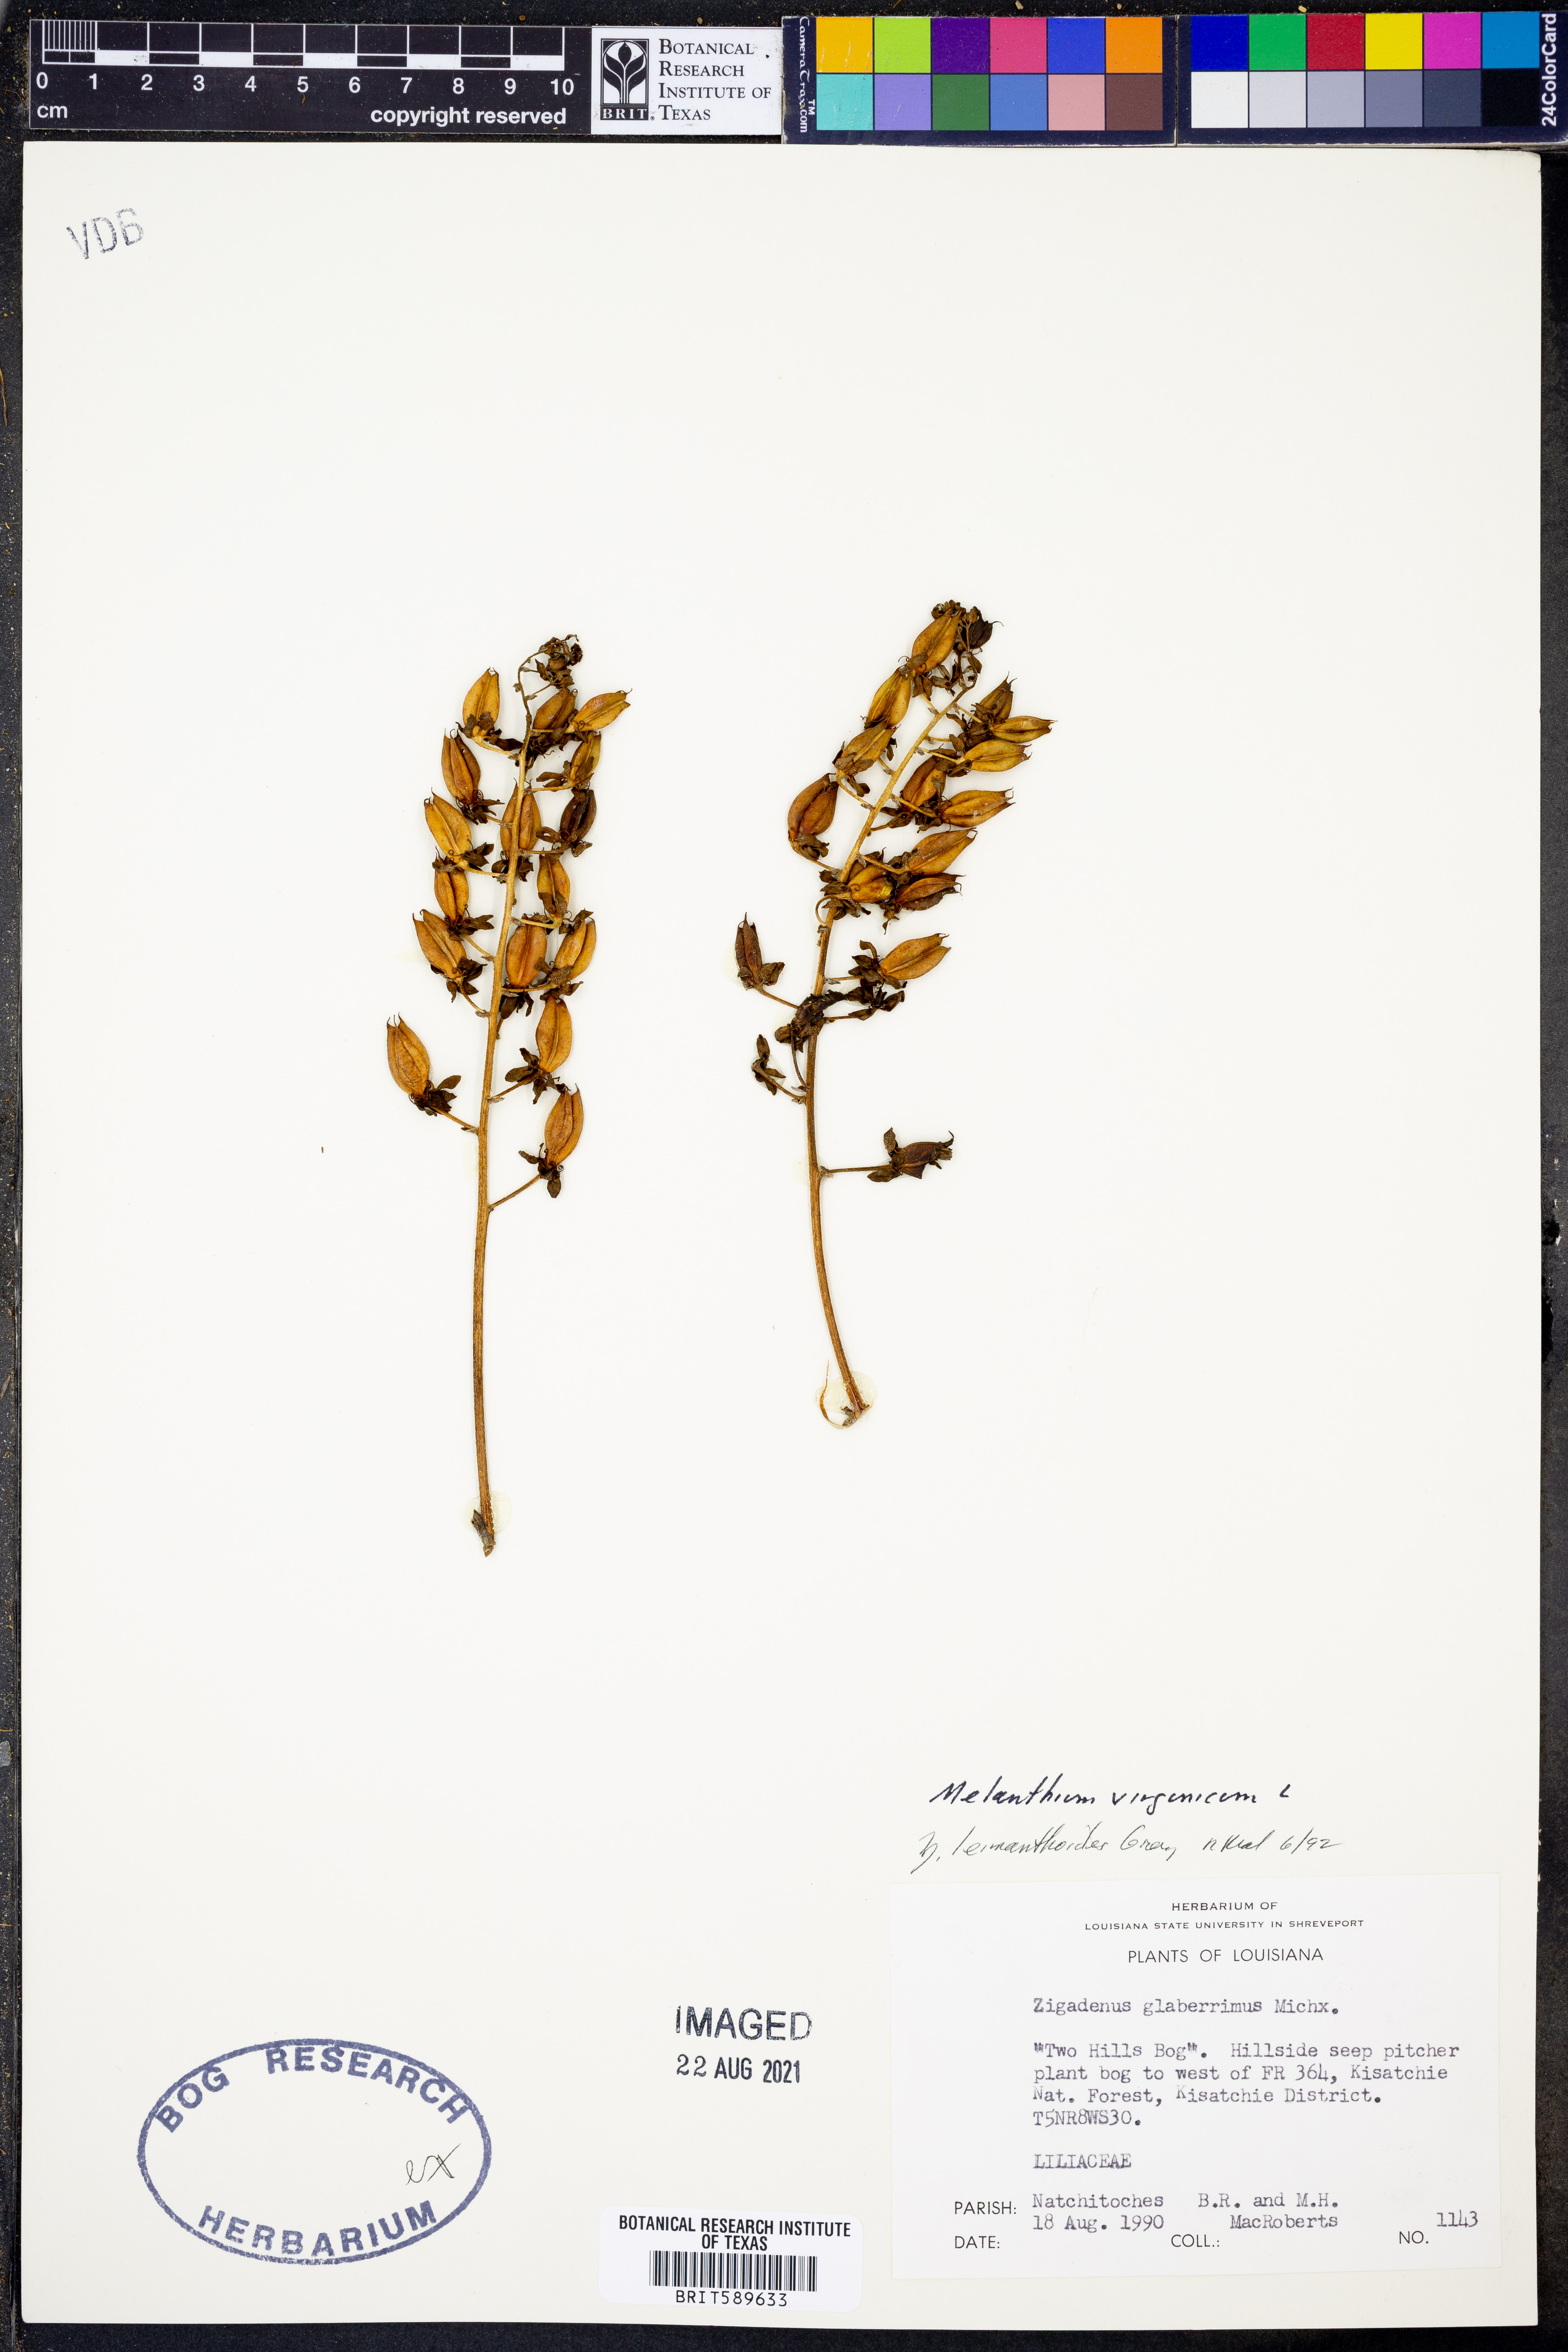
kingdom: Plantae
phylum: Tracheophyta
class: Liliopsida
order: Liliales
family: Melanthiaceae
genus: Melanthium
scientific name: Melanthium virginicum
